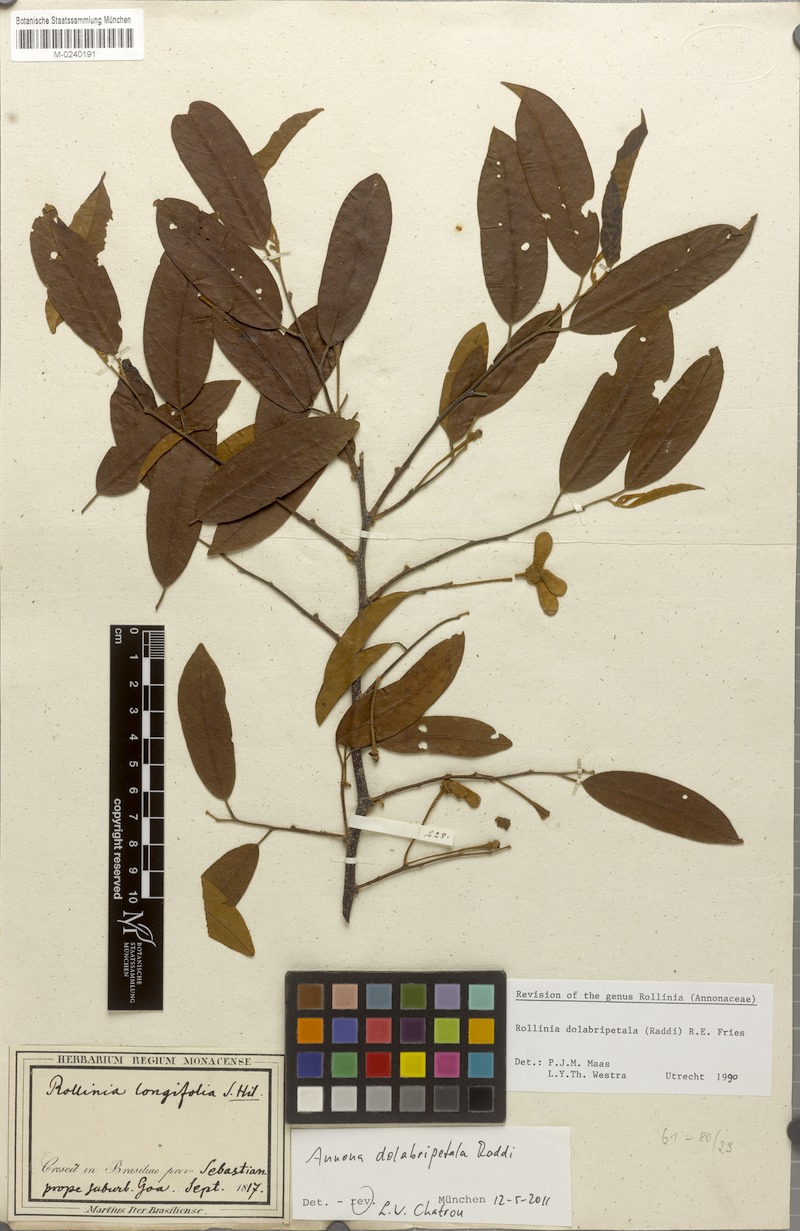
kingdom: Plantae
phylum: Tracheophyta
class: Magnoliopsida
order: Magnoliales
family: Annonaceae
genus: Annona
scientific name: Annona dolabripetala
